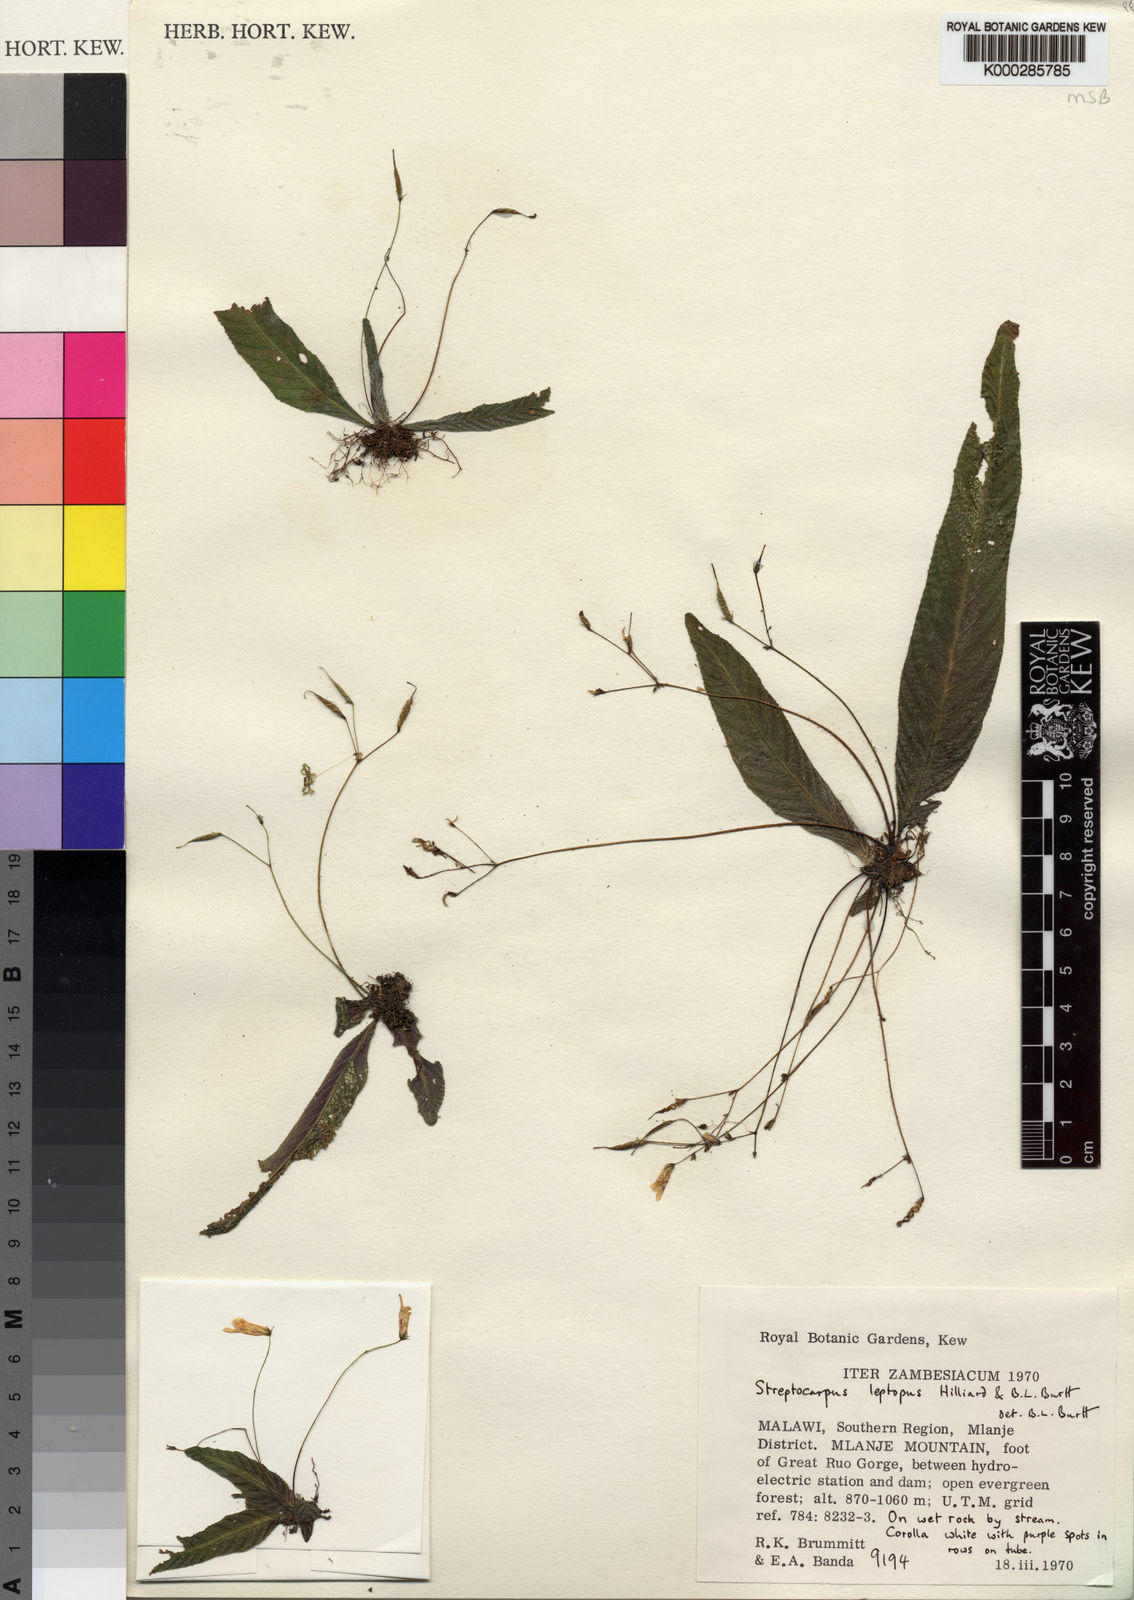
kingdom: Plantae
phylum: Tracheophyta
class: Magnoliopsida
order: Lamiales
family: Gesneriaceae
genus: Streptocarpus
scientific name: Streptocarpus leptopus
